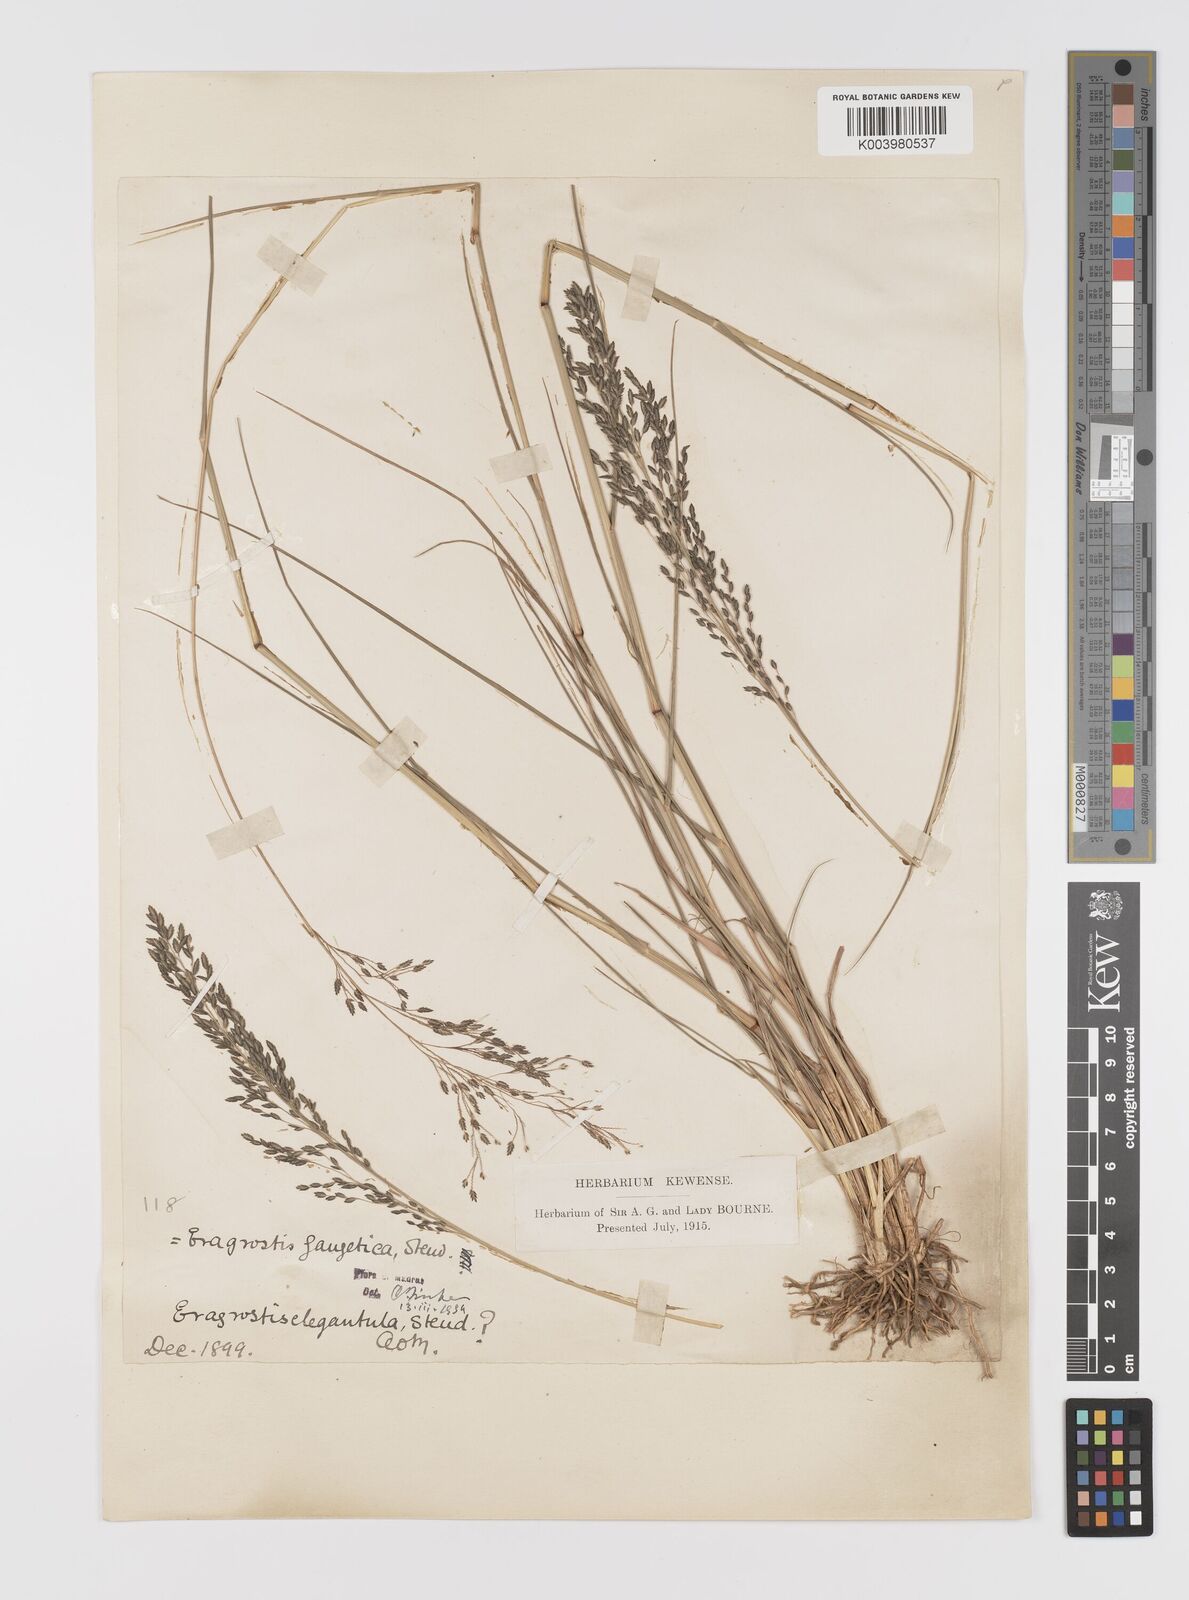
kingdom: Plantae
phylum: Tracheophyta
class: Liliopsida
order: Poales
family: Poaceae
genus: Eragrostis
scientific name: Eragrostis
